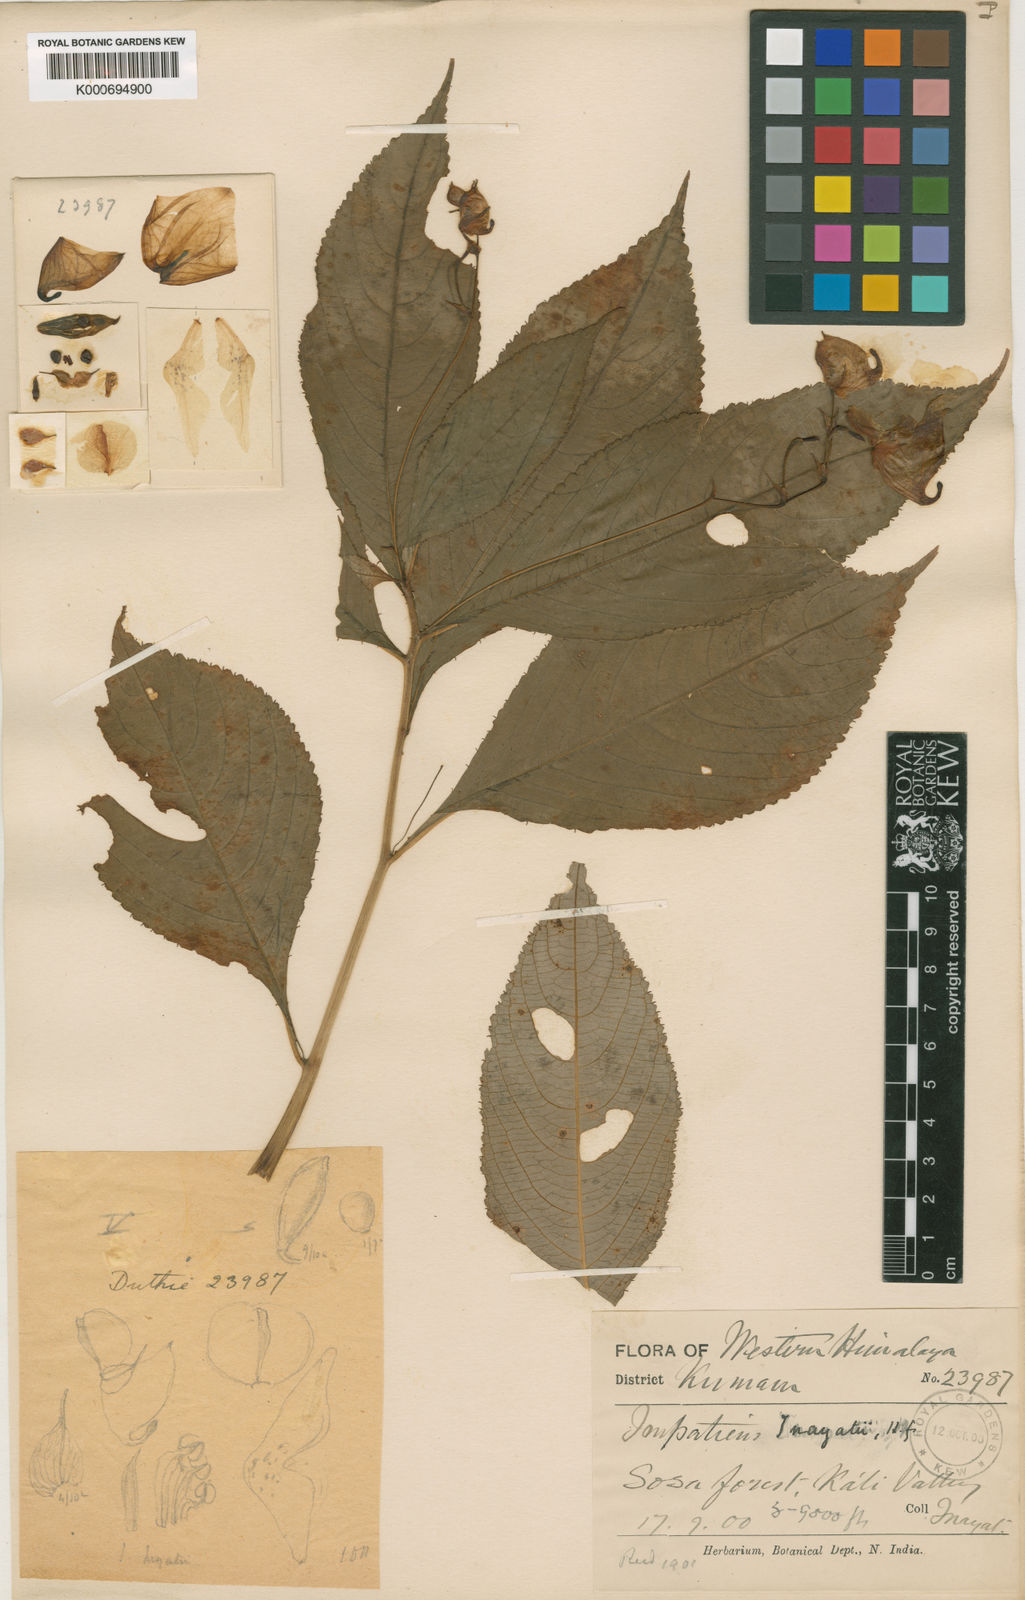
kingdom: Plantae
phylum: Tracheophyta
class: Magnoliopsida
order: Ericales
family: Balsaminaceae
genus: Impatiens
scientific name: Impatiens bicornuta
